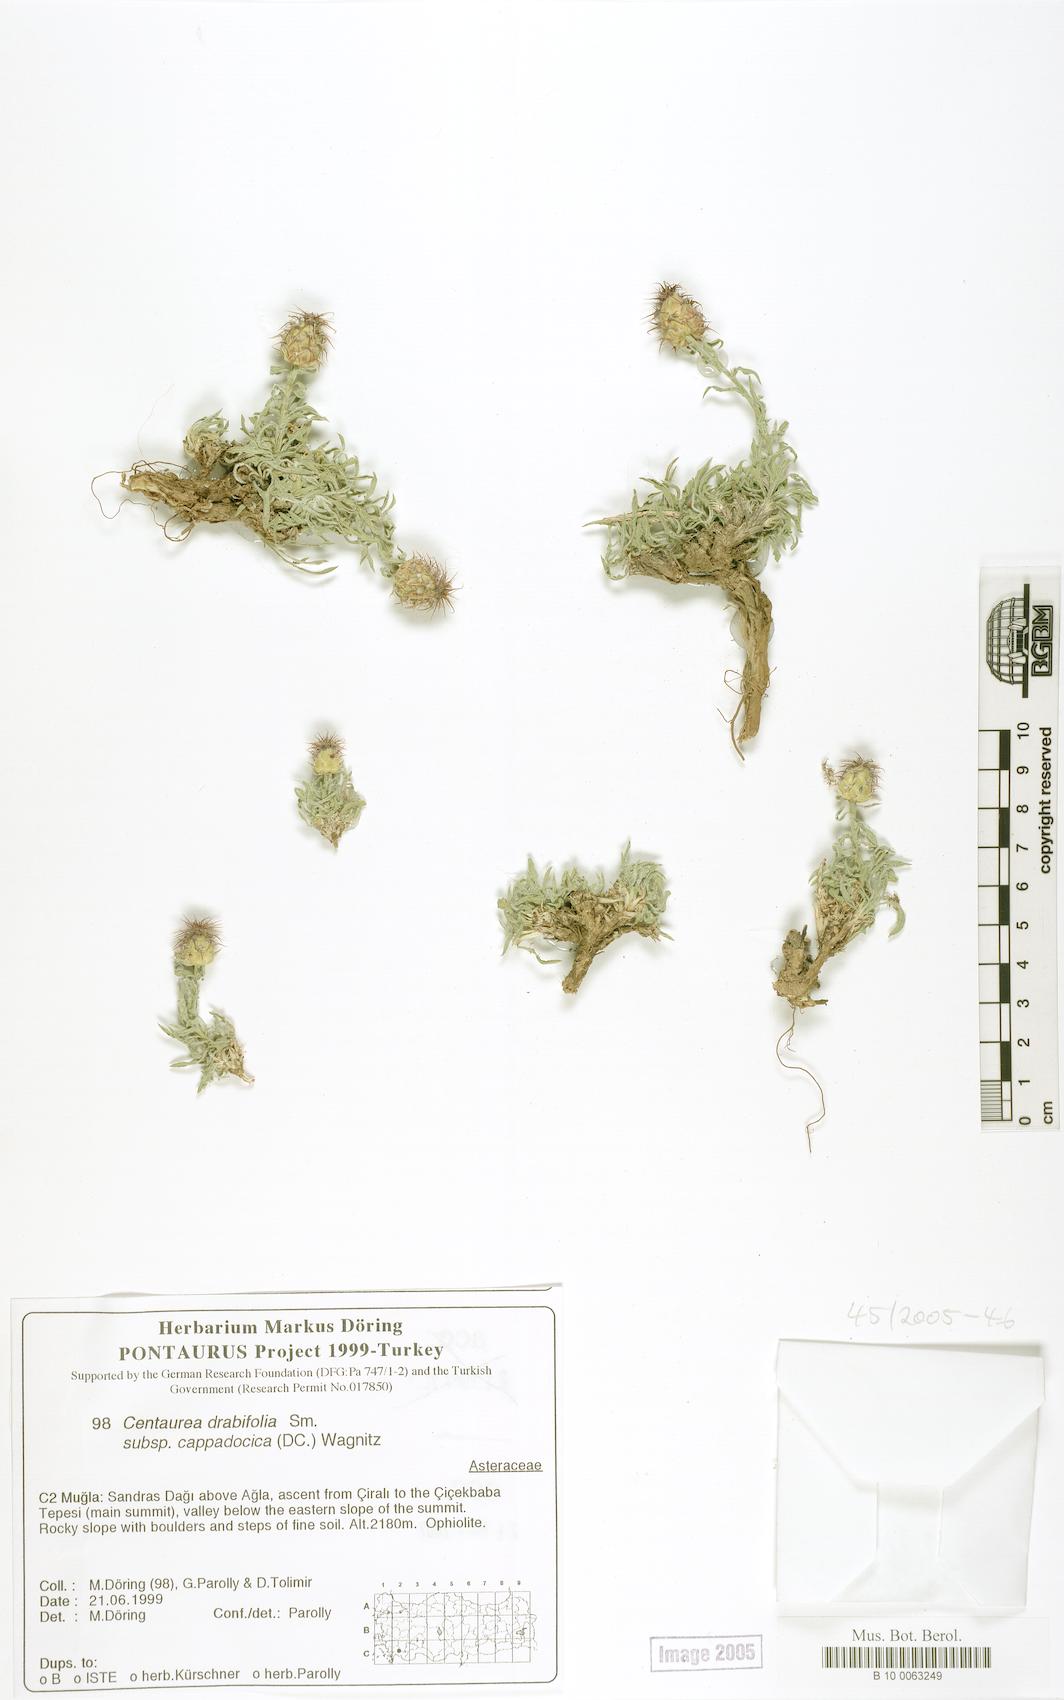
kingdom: Plantae
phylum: Tracheophyta
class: Magnoliopsida
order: Asterales
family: Asteraceae
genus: Centaurea
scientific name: Centaurea drabifolia
